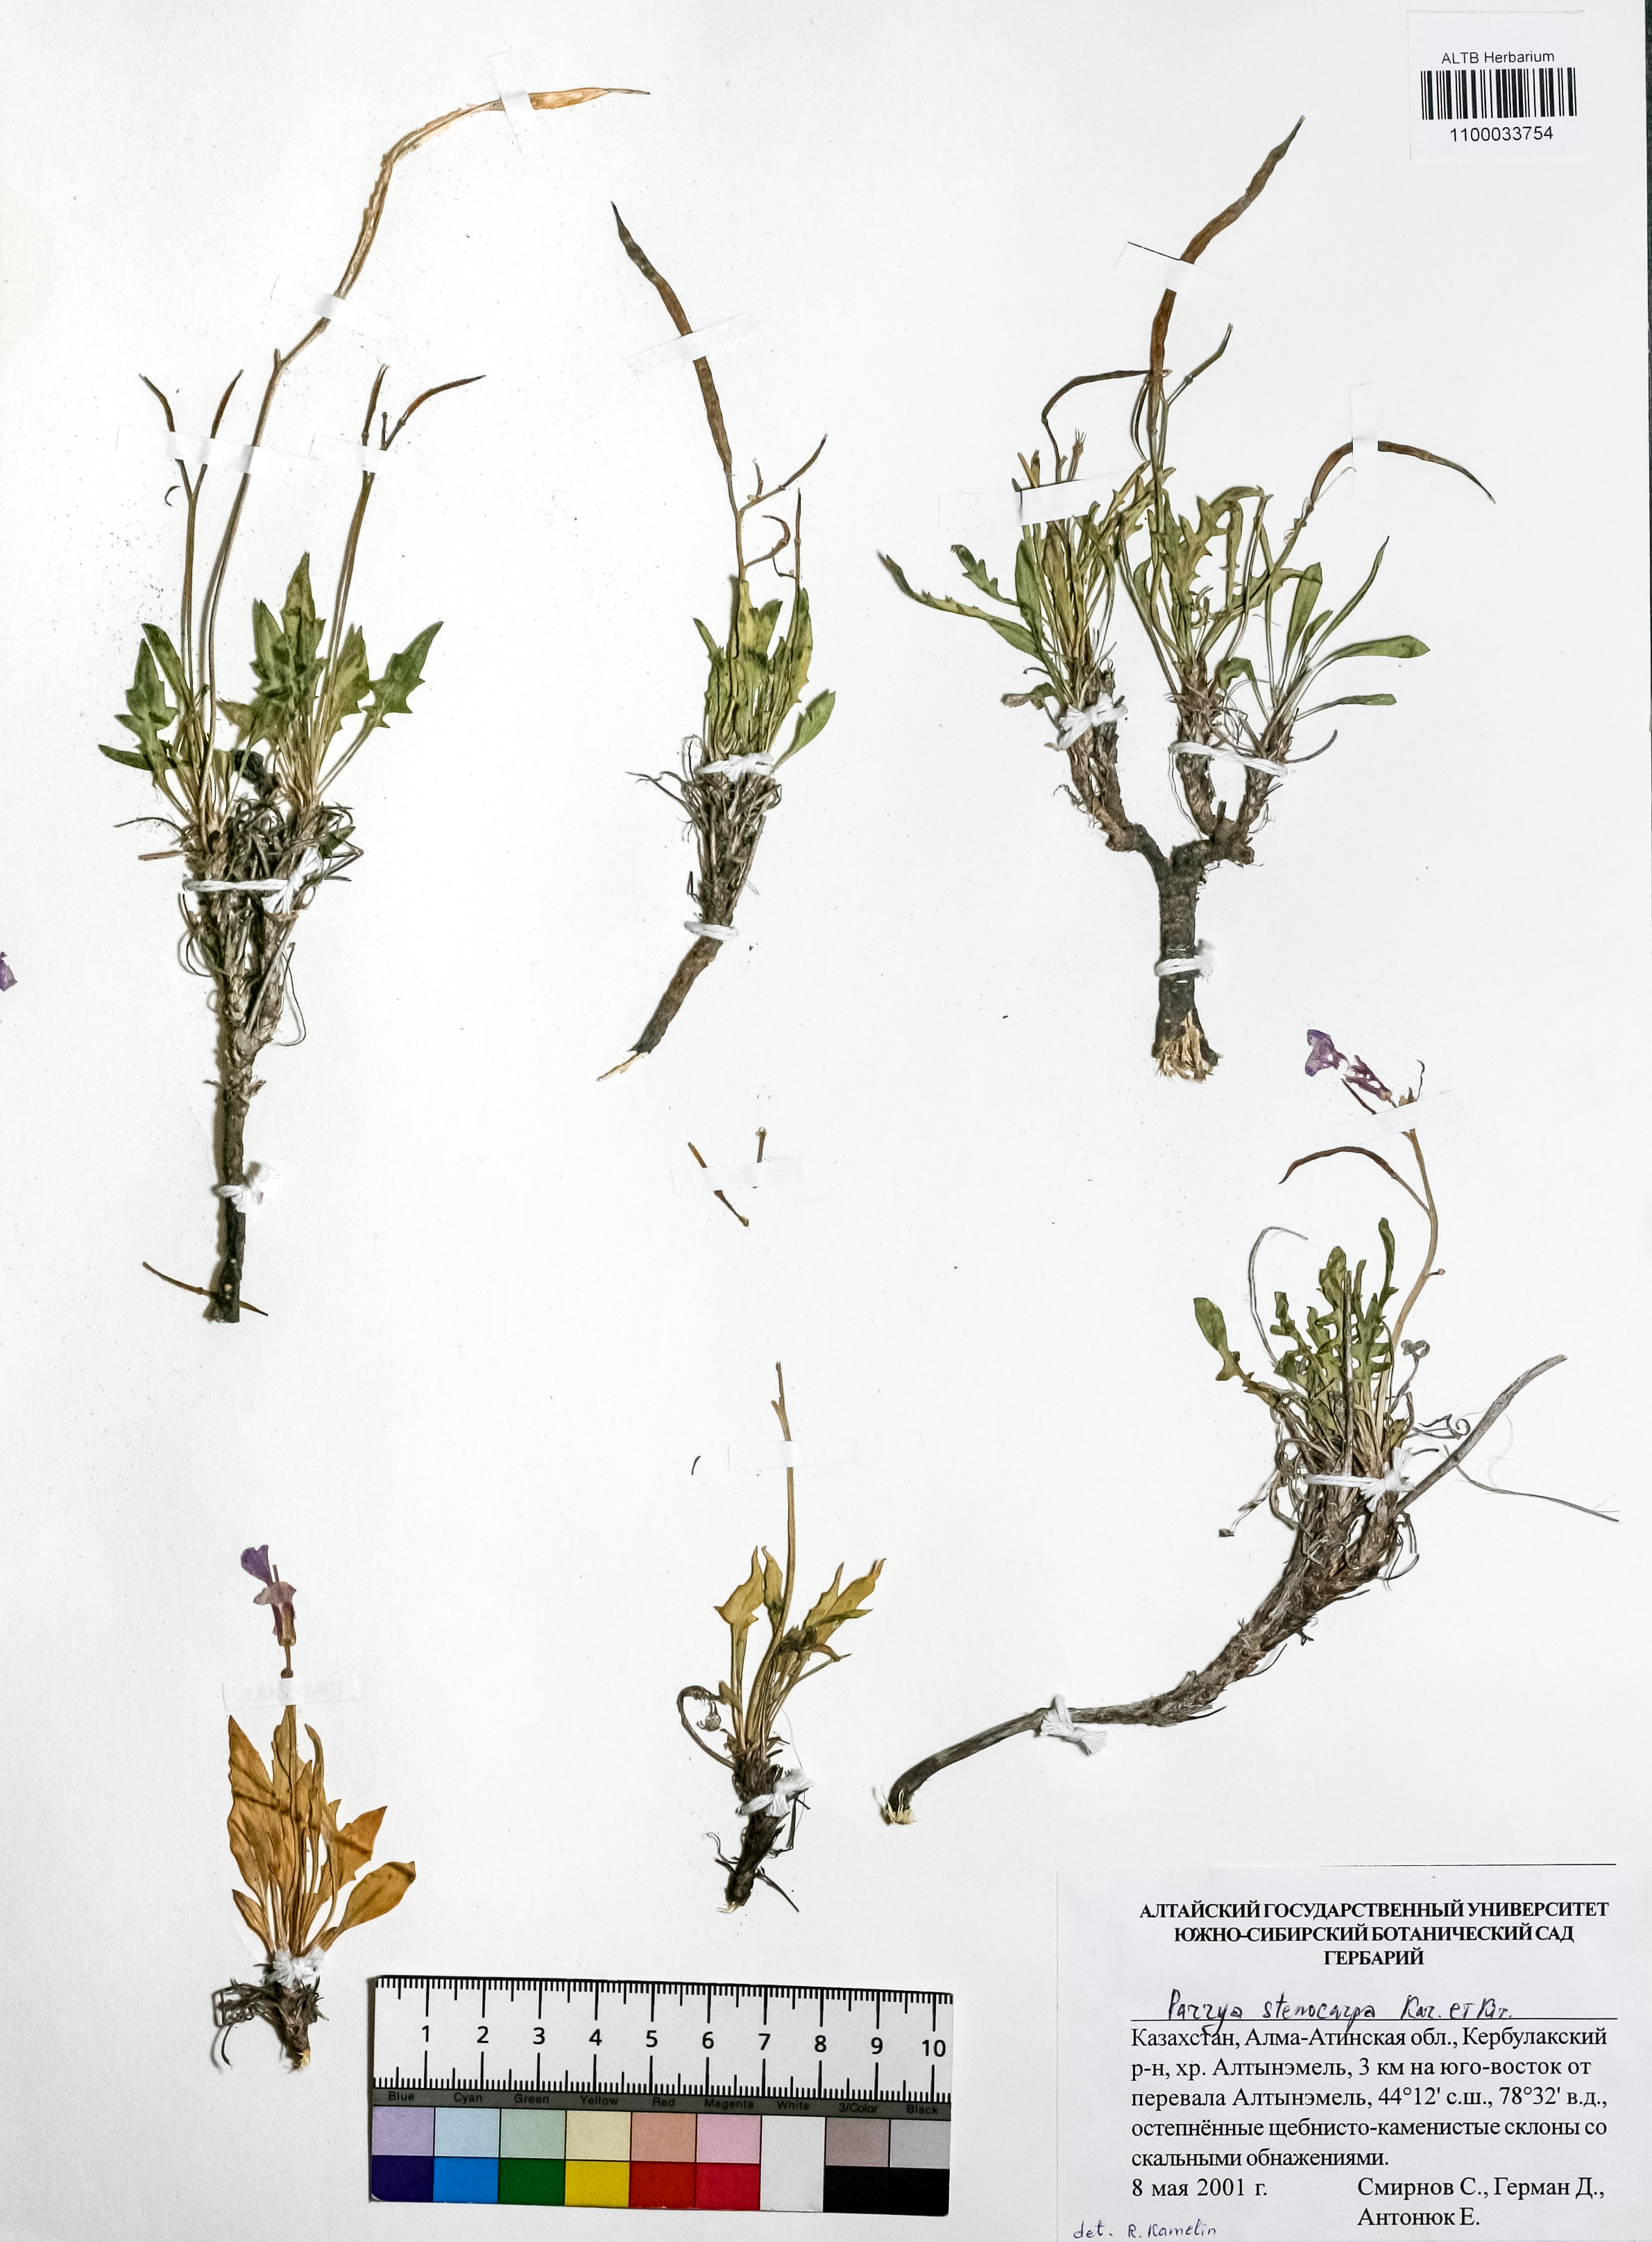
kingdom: Plantae
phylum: Tracheophyta
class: Magnoliopsida
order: Brassicales
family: Brassicaceae
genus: Parrya
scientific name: Parrya stenocarpa
